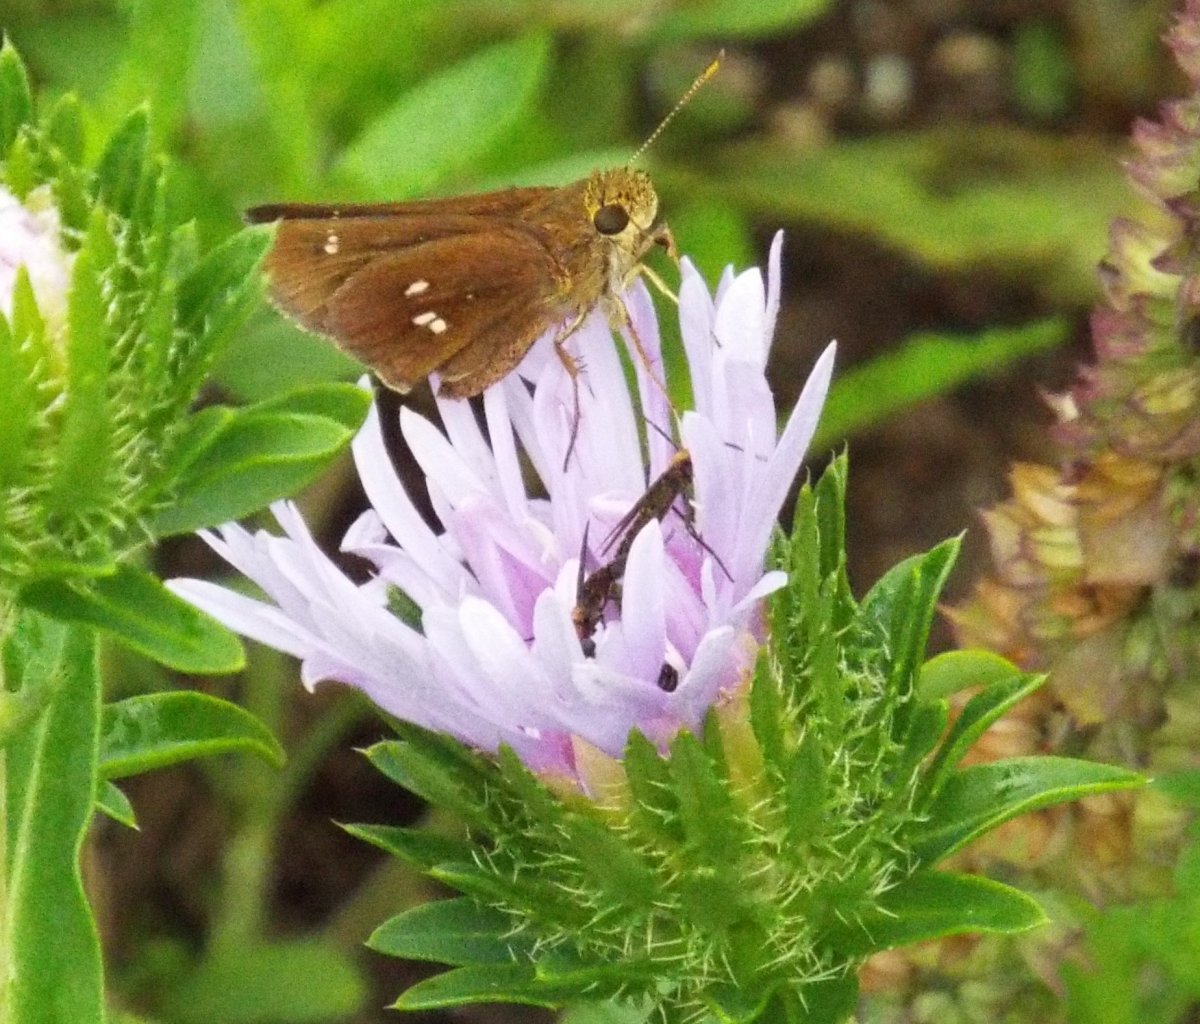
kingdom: Animalia
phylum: Arthropoda
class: Insecta
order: Lepidoptera
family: Hesperiidae
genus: Oligoria
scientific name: Oligoria maculata
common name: Twin-spot Skipper
